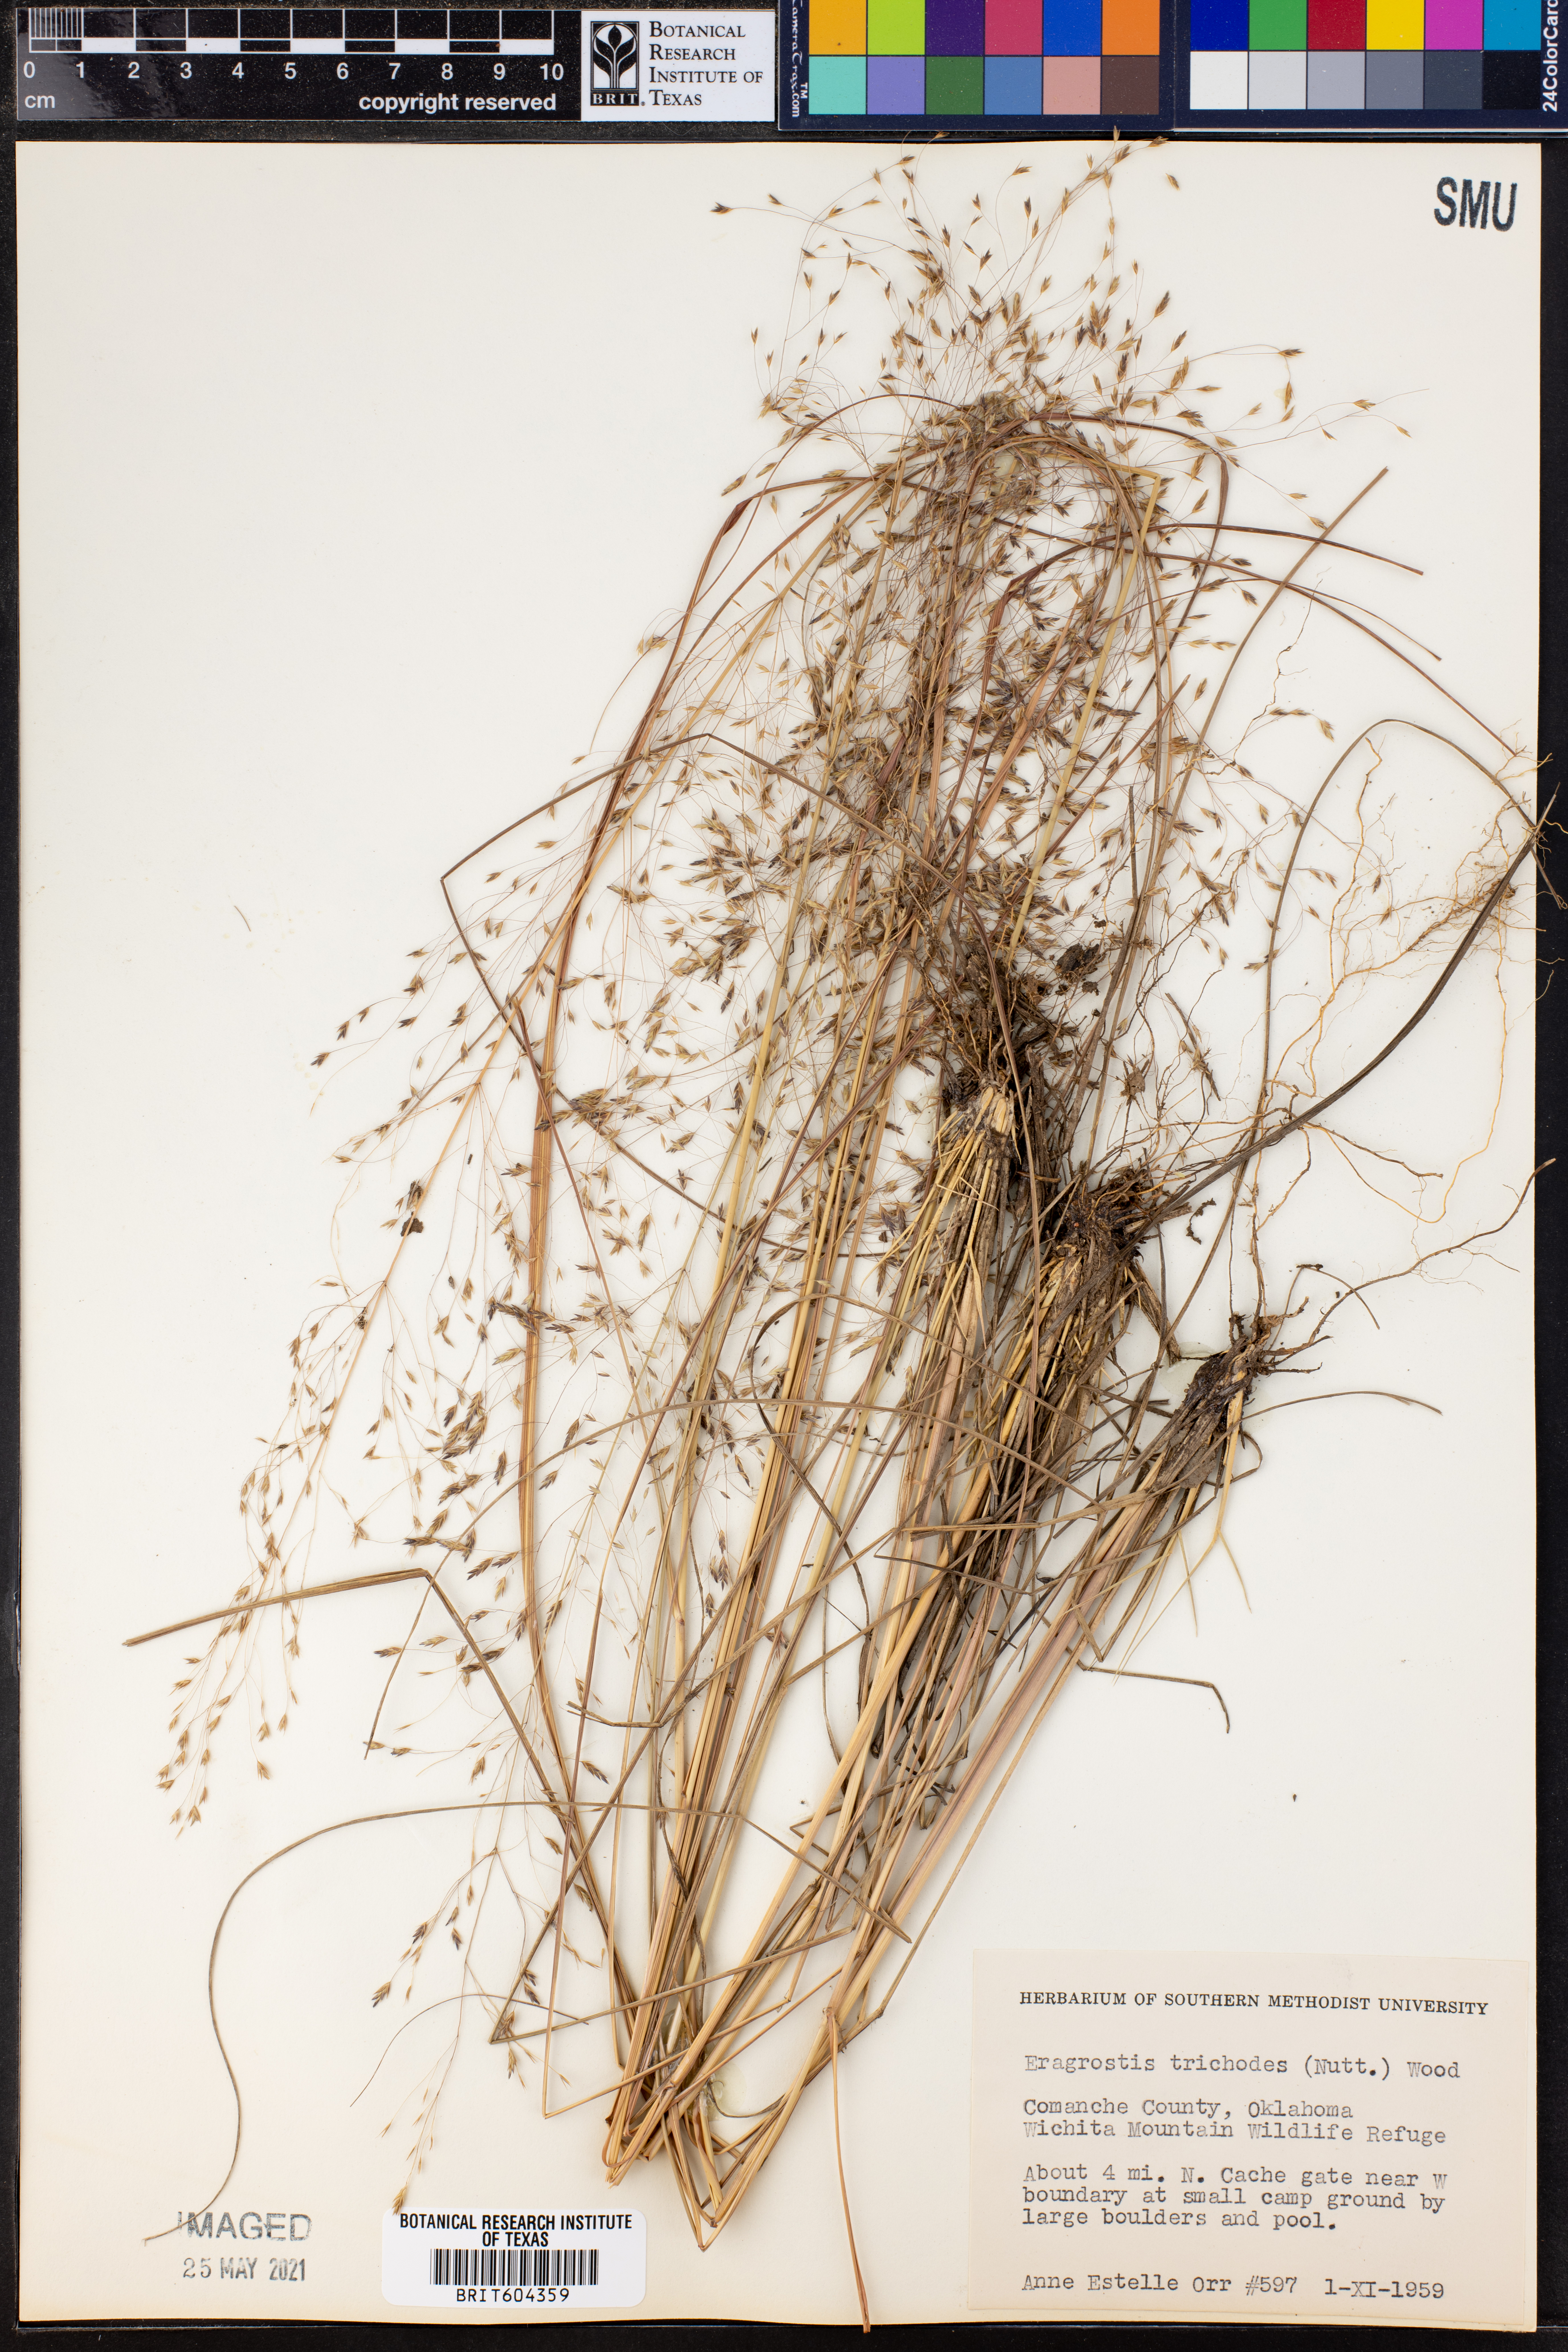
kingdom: Plantae
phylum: Tracheophyta
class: Liliopsida
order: Poales
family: Poaceae
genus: Eragrostis
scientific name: Eragrostis trichodes
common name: Sand love grass
